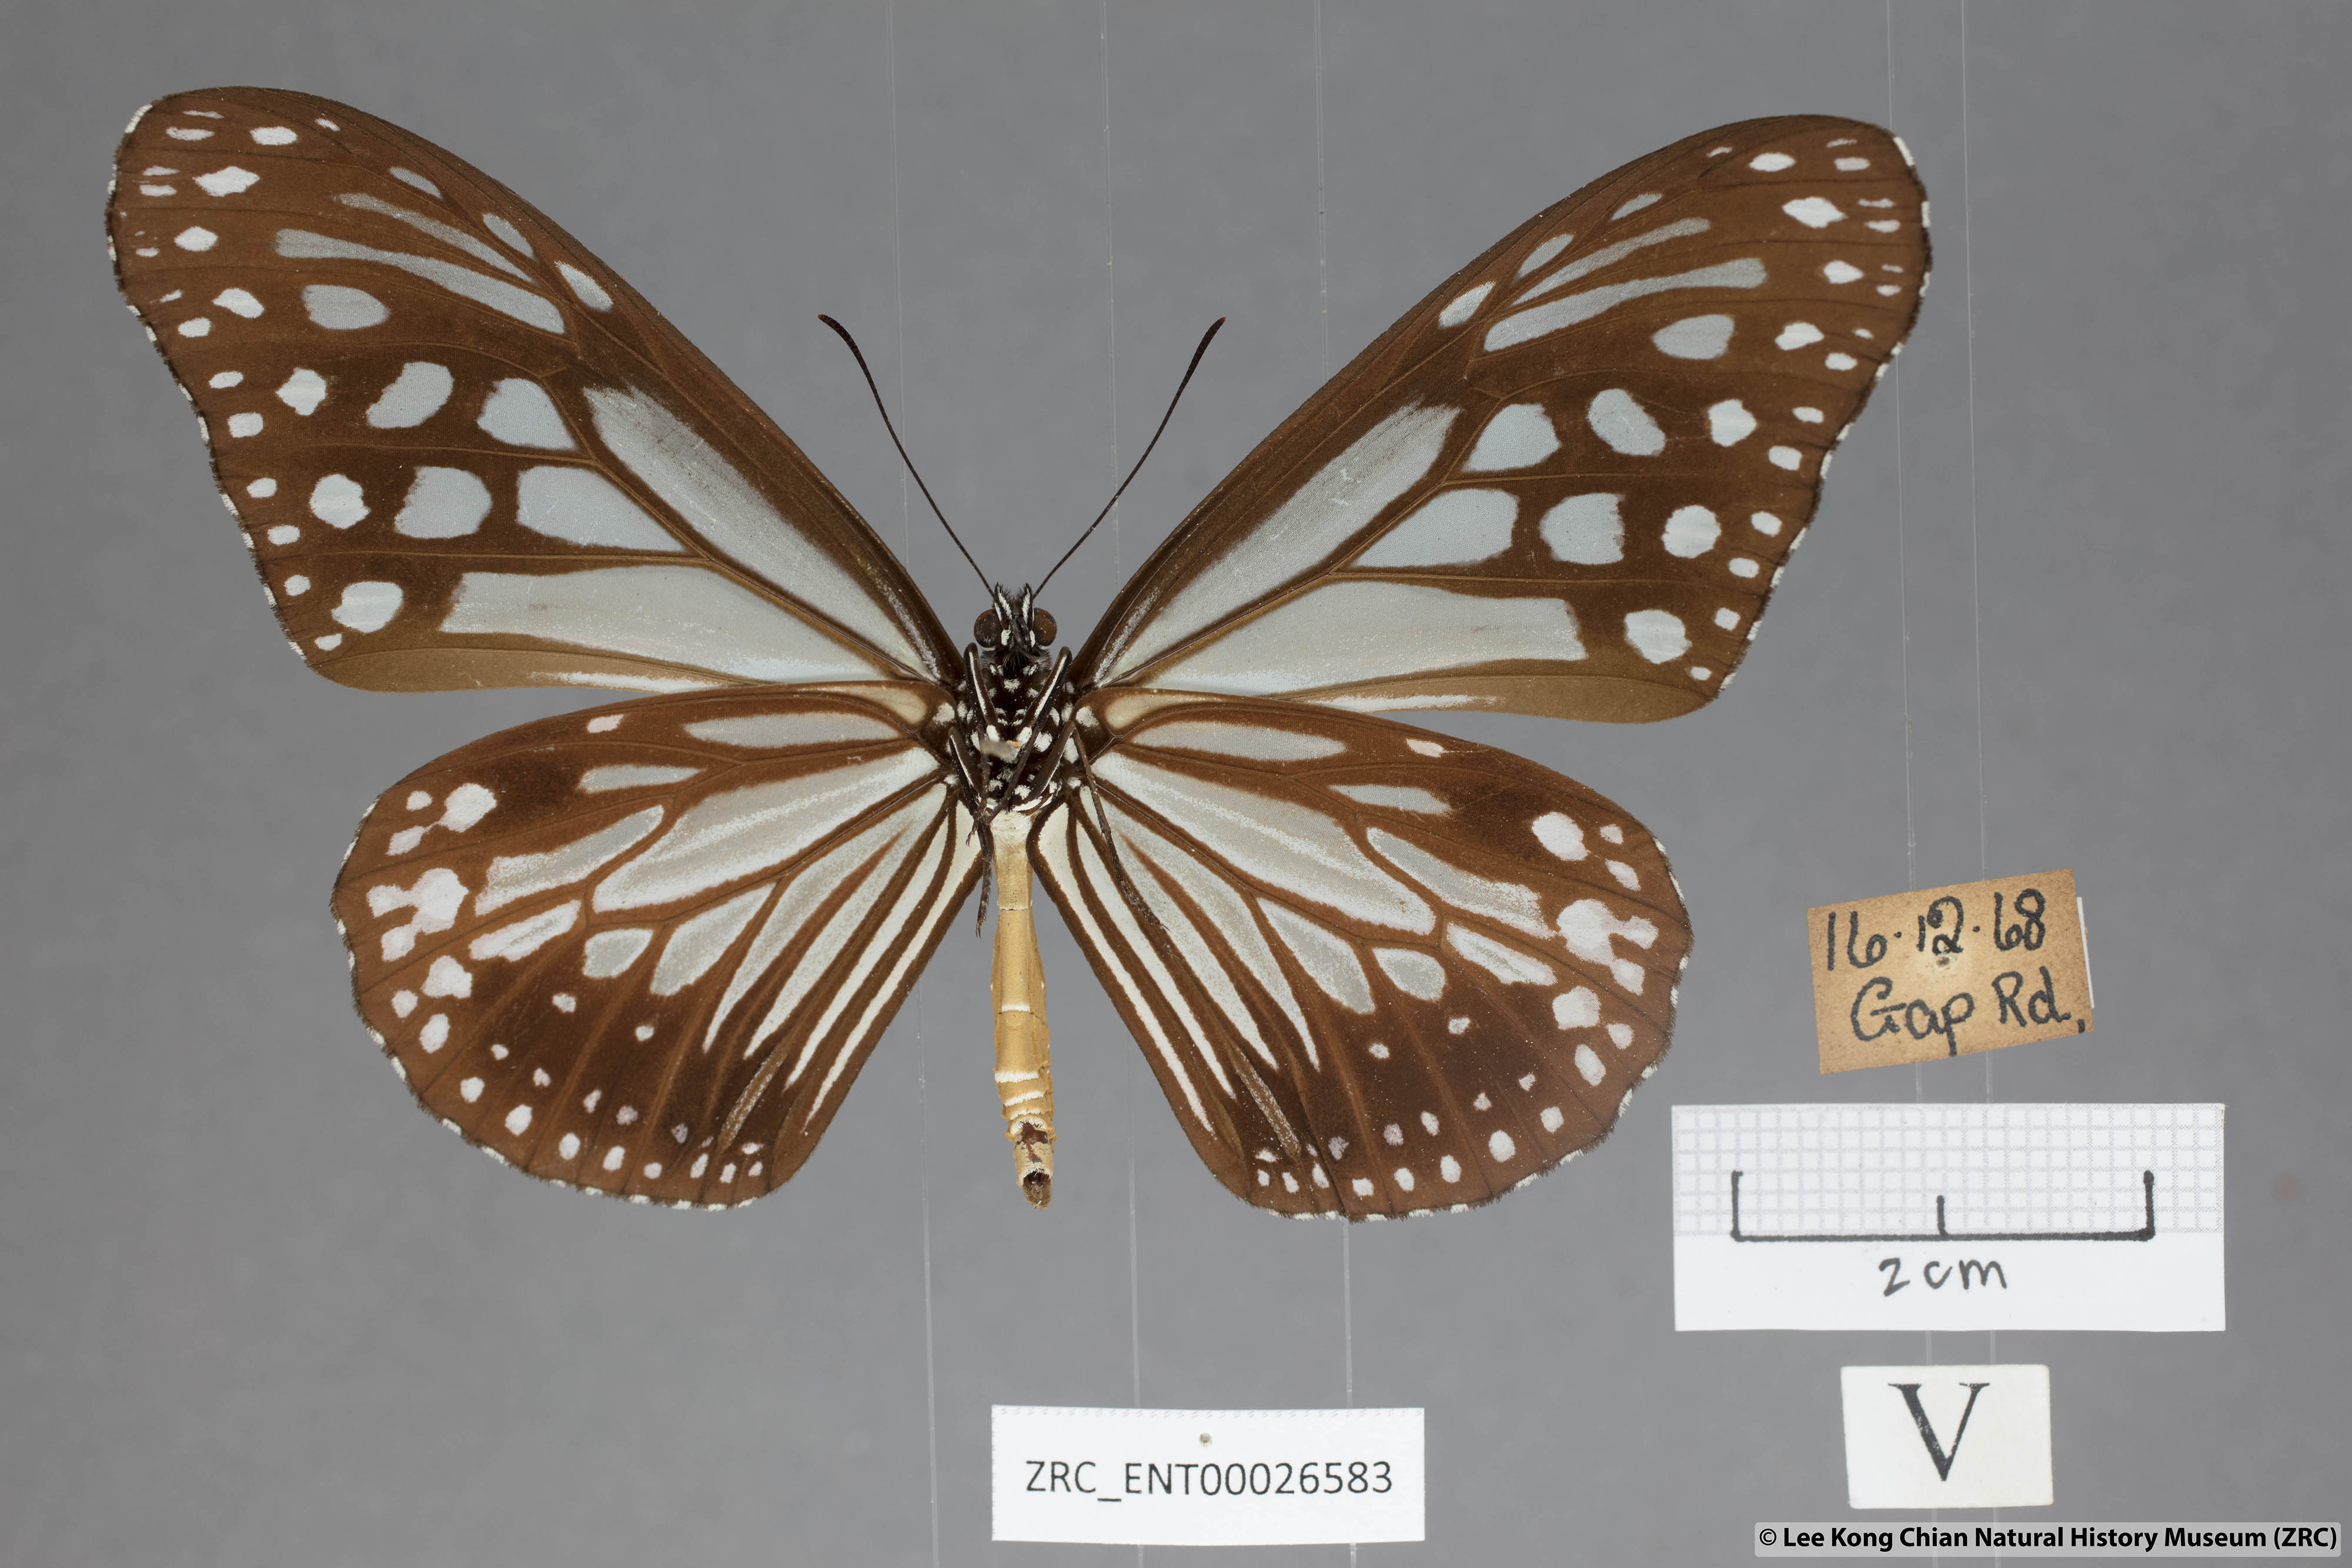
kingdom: Animalia
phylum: Arthropoda
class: Insecta
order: Lepidoptera
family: Nymphalidae
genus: Parantica
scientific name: Parantica melaneus
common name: Chocolate tiger
